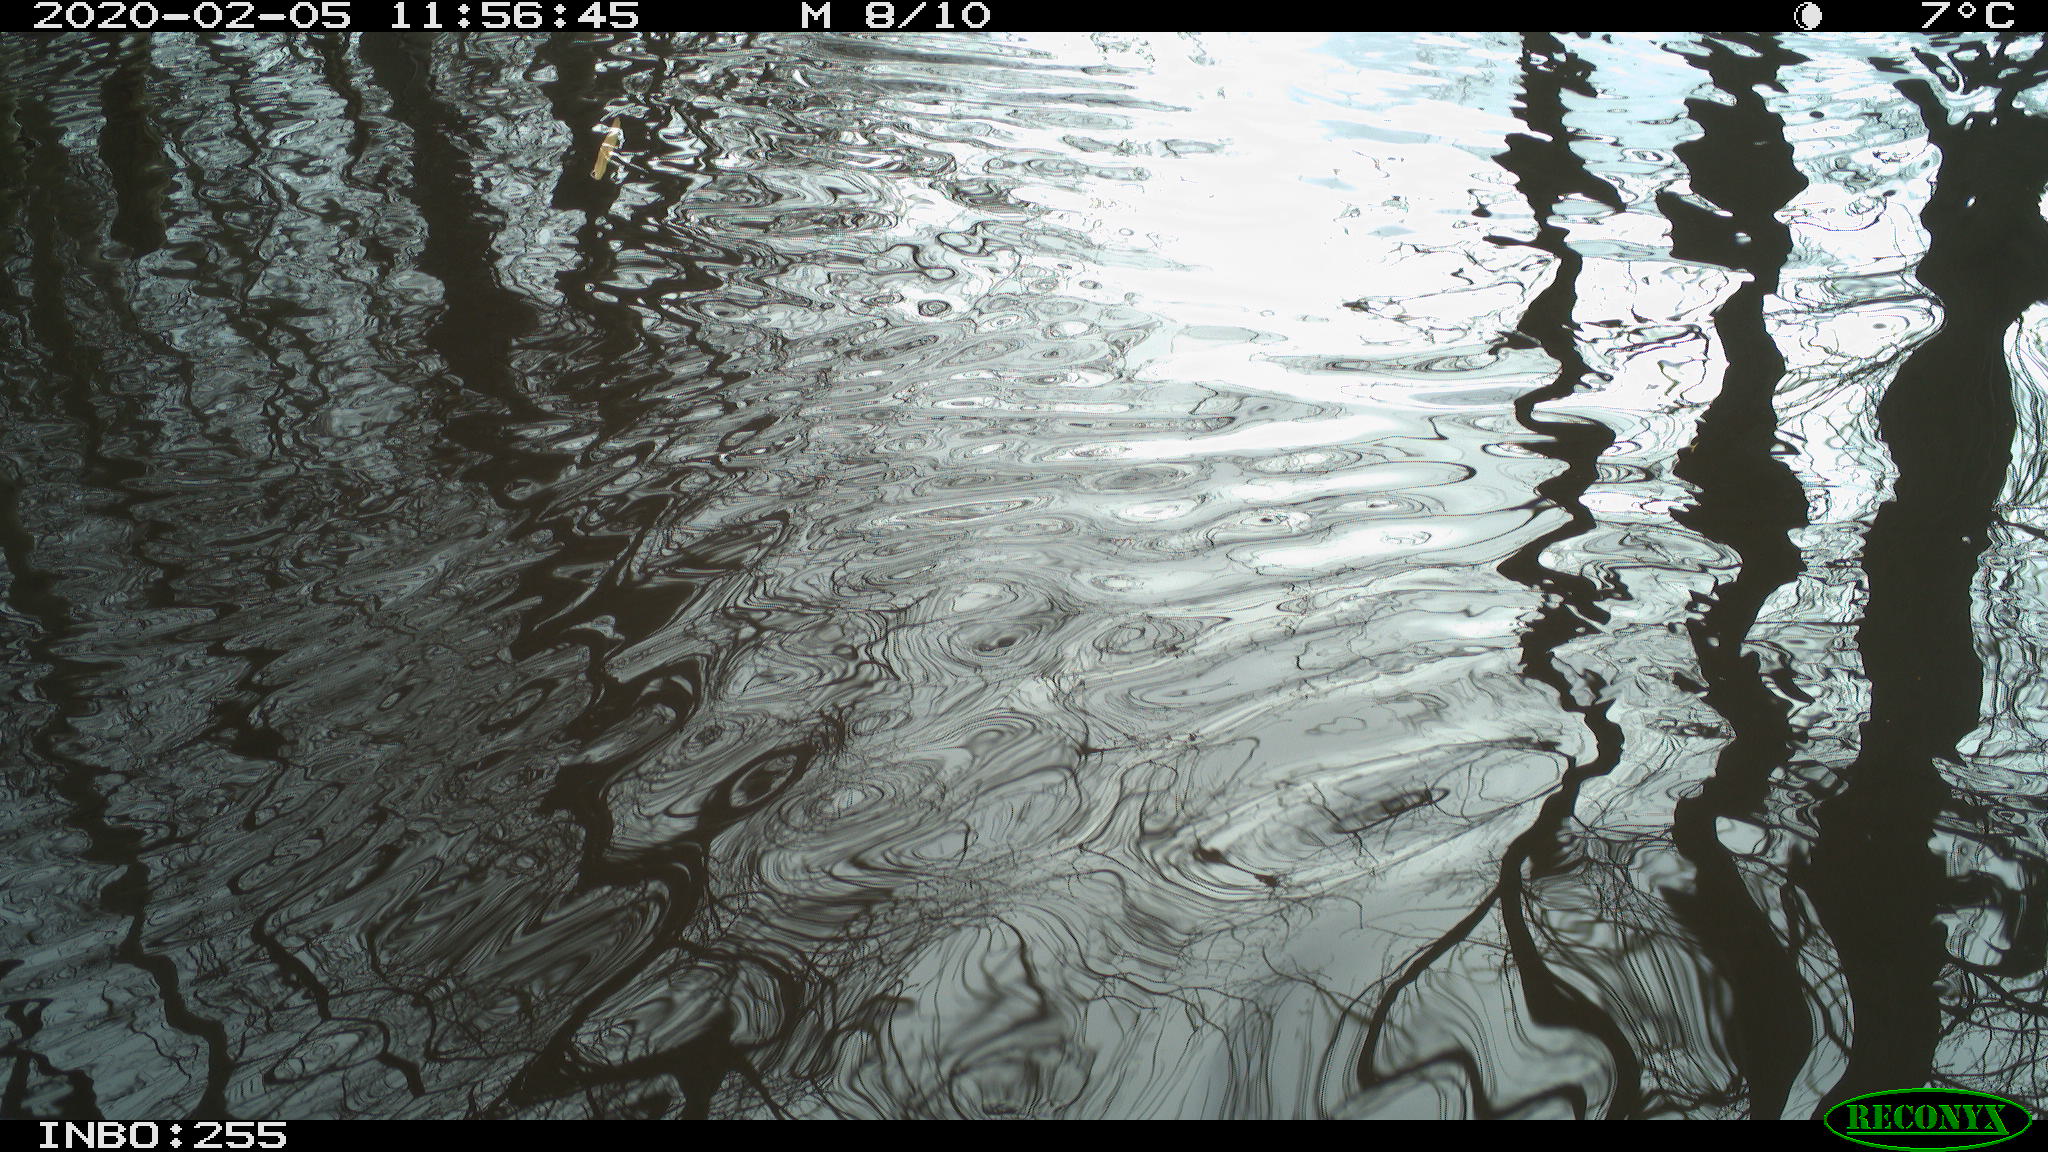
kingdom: Animalia
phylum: Chordata
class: Aves
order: Gruiformes
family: Rallidae
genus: Gallinula
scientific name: Gallinula chloropus
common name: Common moorhen
